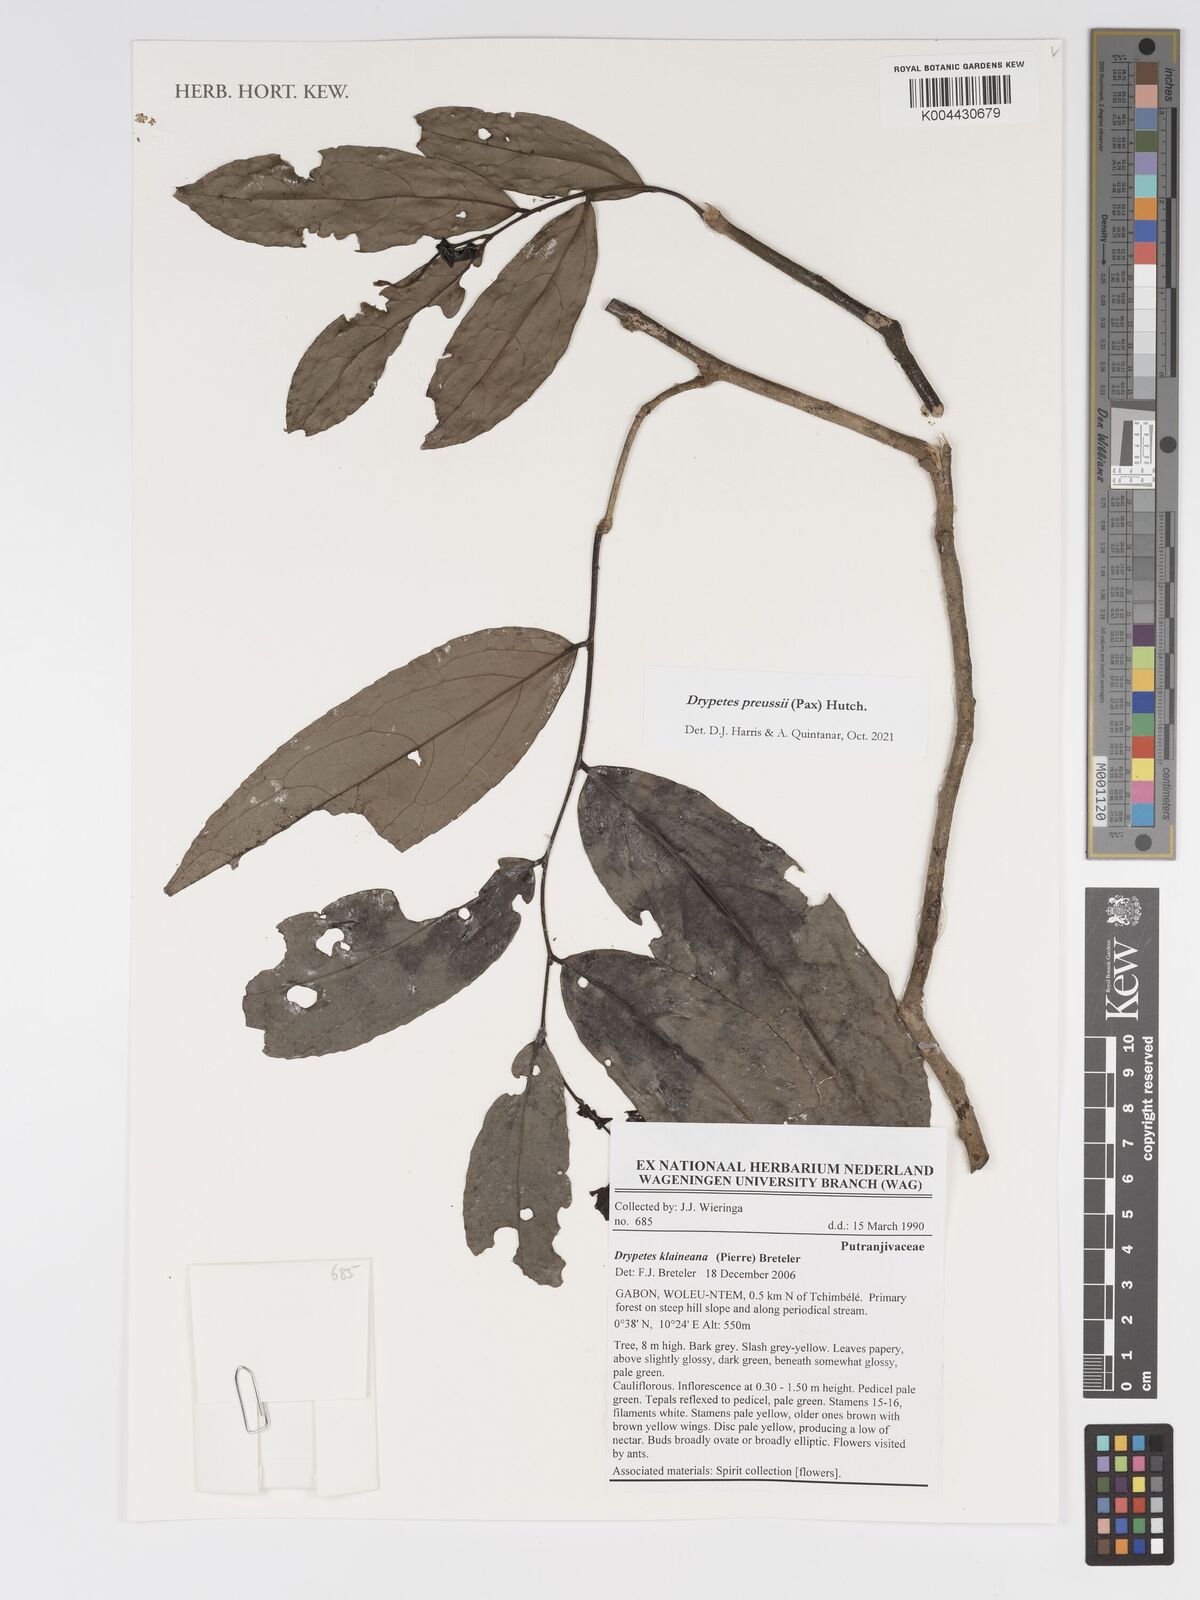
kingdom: Plantae
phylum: Tracheophyta
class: Magnoliopsida
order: Malpighiales
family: Putranjivaceae
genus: Drypetes
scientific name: Drypetes preussii
